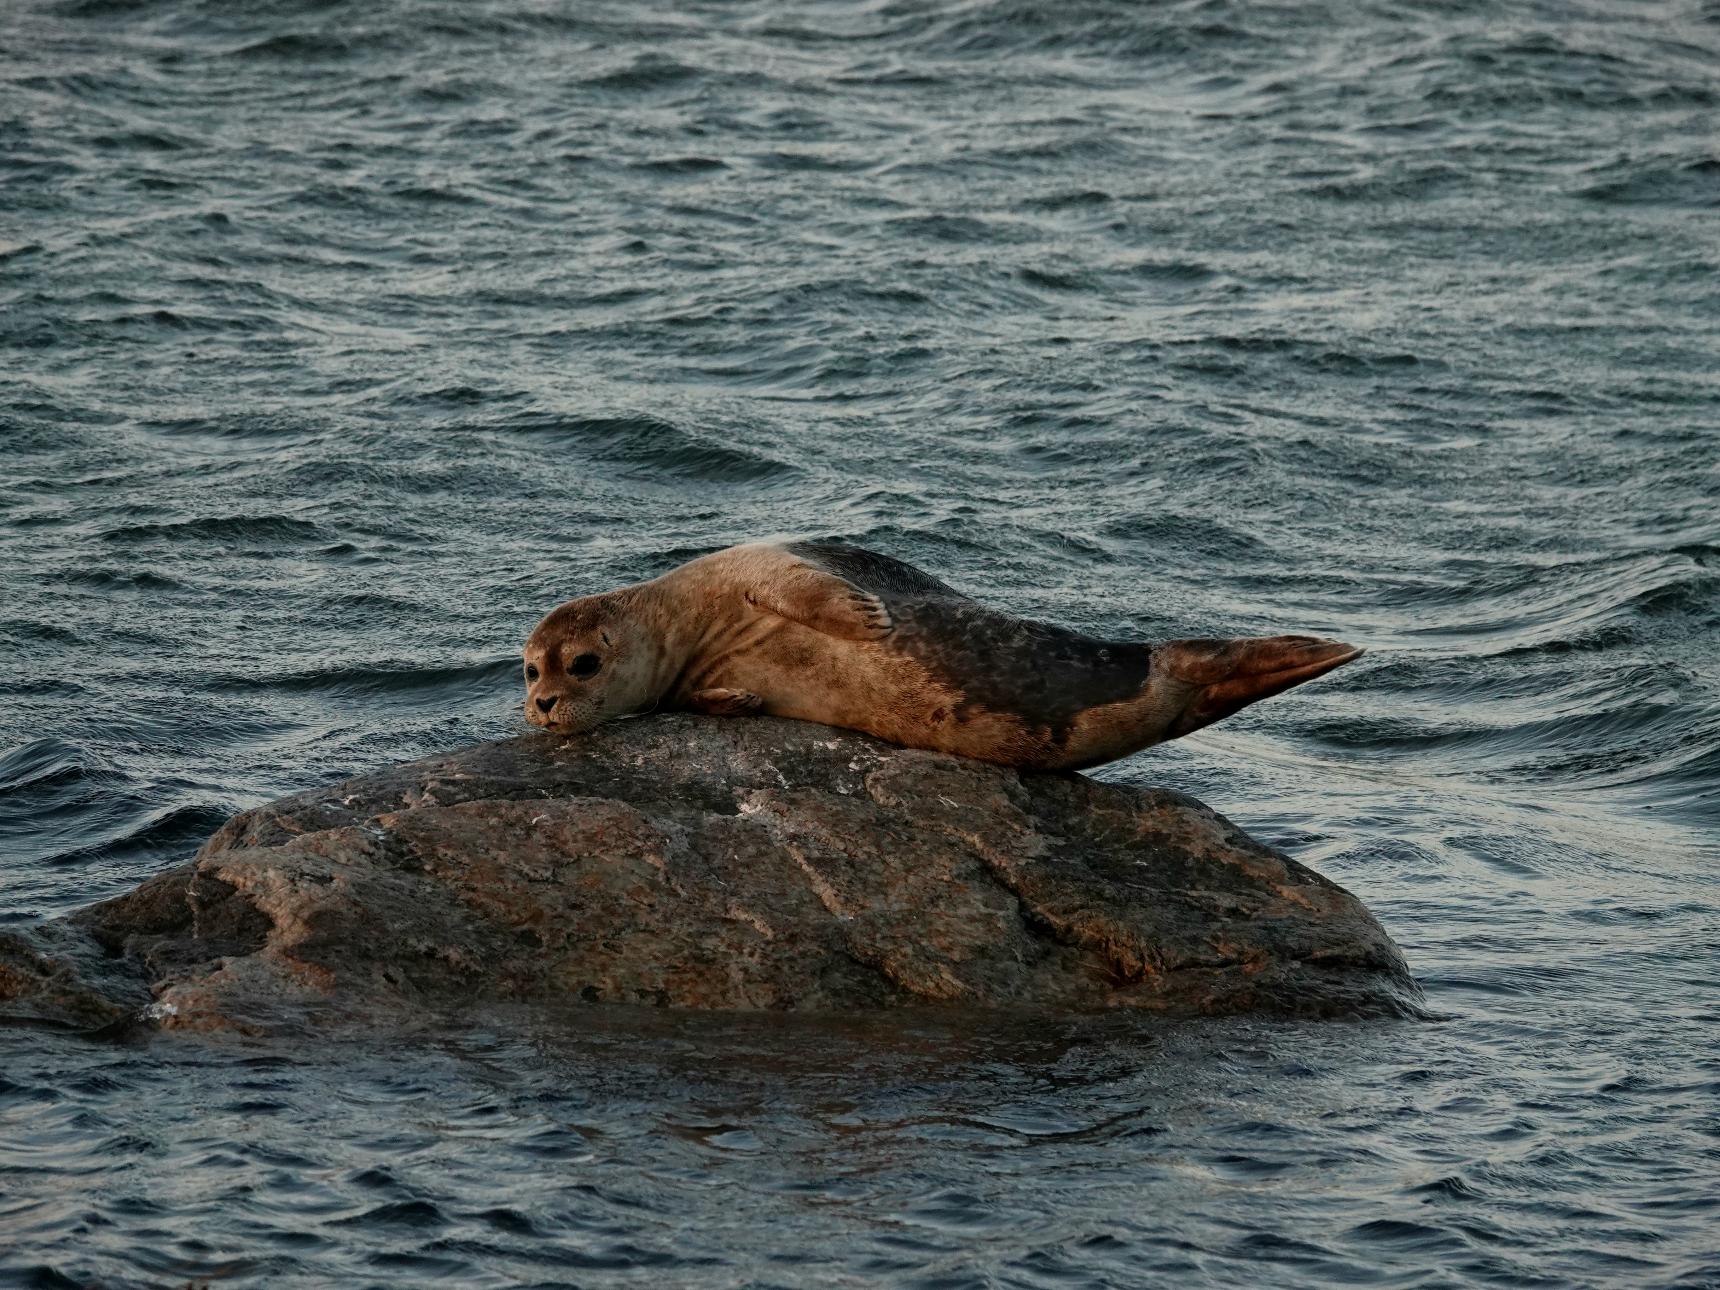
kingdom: Animalia
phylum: Chordata
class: Mammalia
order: Carnivora
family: Phocidae
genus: Phoca
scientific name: Phoca vitulina
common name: Spættet sæl
